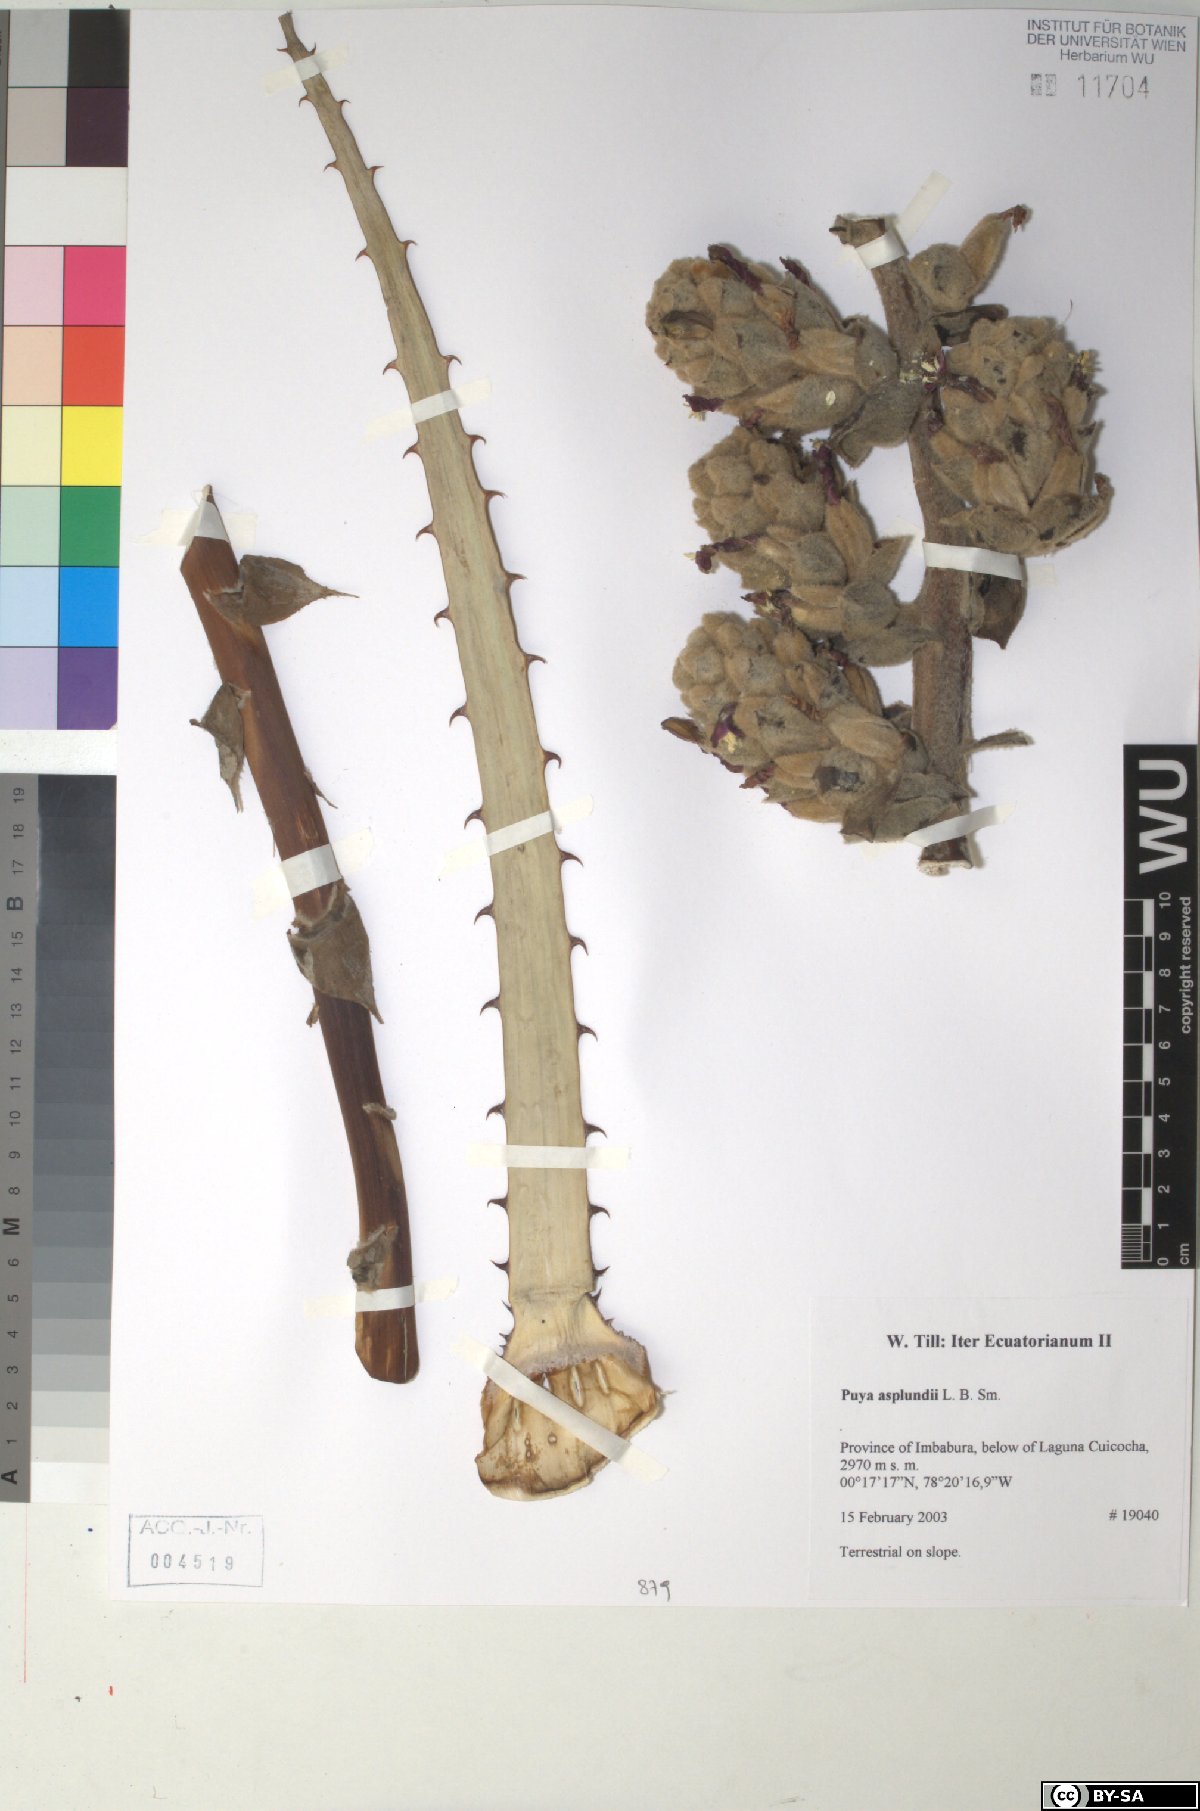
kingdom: Plantae
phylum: Tracheophyta
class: Liliopsida
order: Poales
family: Bromeliaceae
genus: Puya
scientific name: Puya glomerifera
